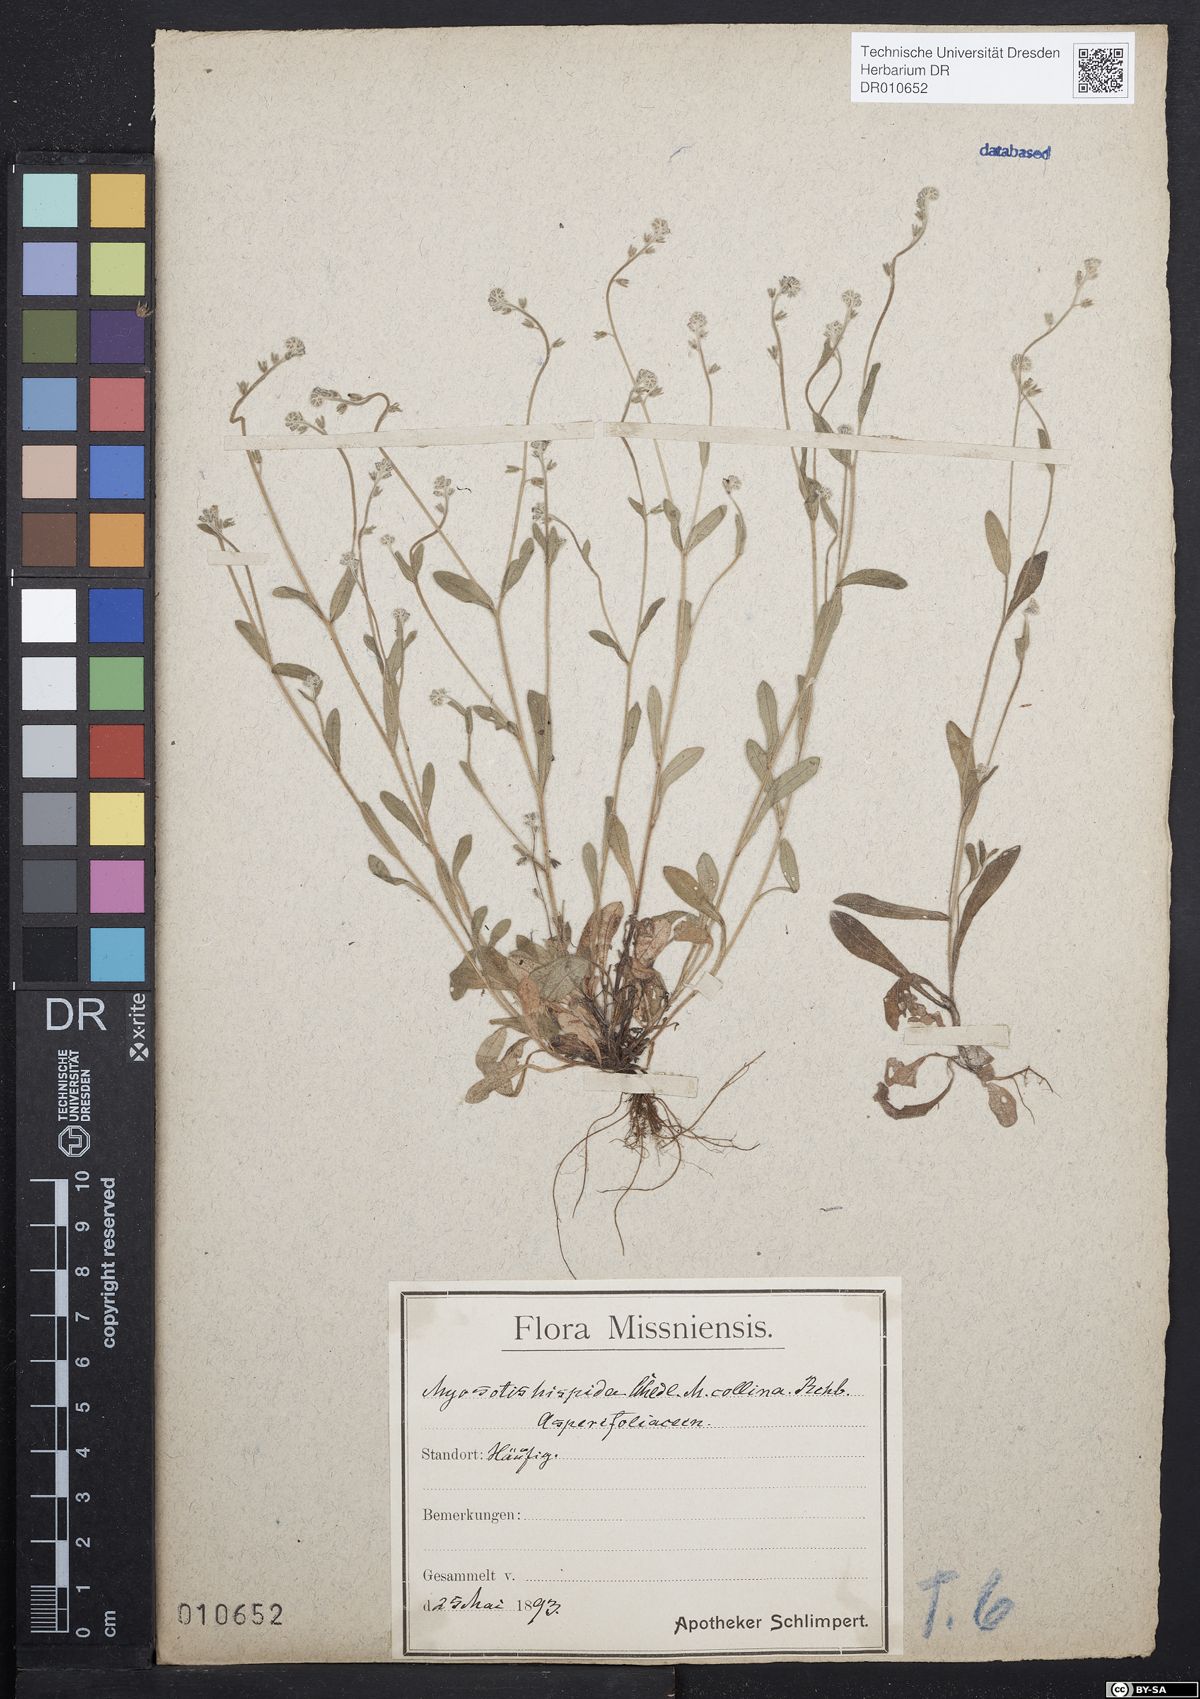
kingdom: Plantae
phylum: Tracheophyta
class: Magnoliopsida
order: Boraginales
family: Boraginaceae
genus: Myosotis
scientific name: Myosotis ramosissima
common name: Early forget-me-not
